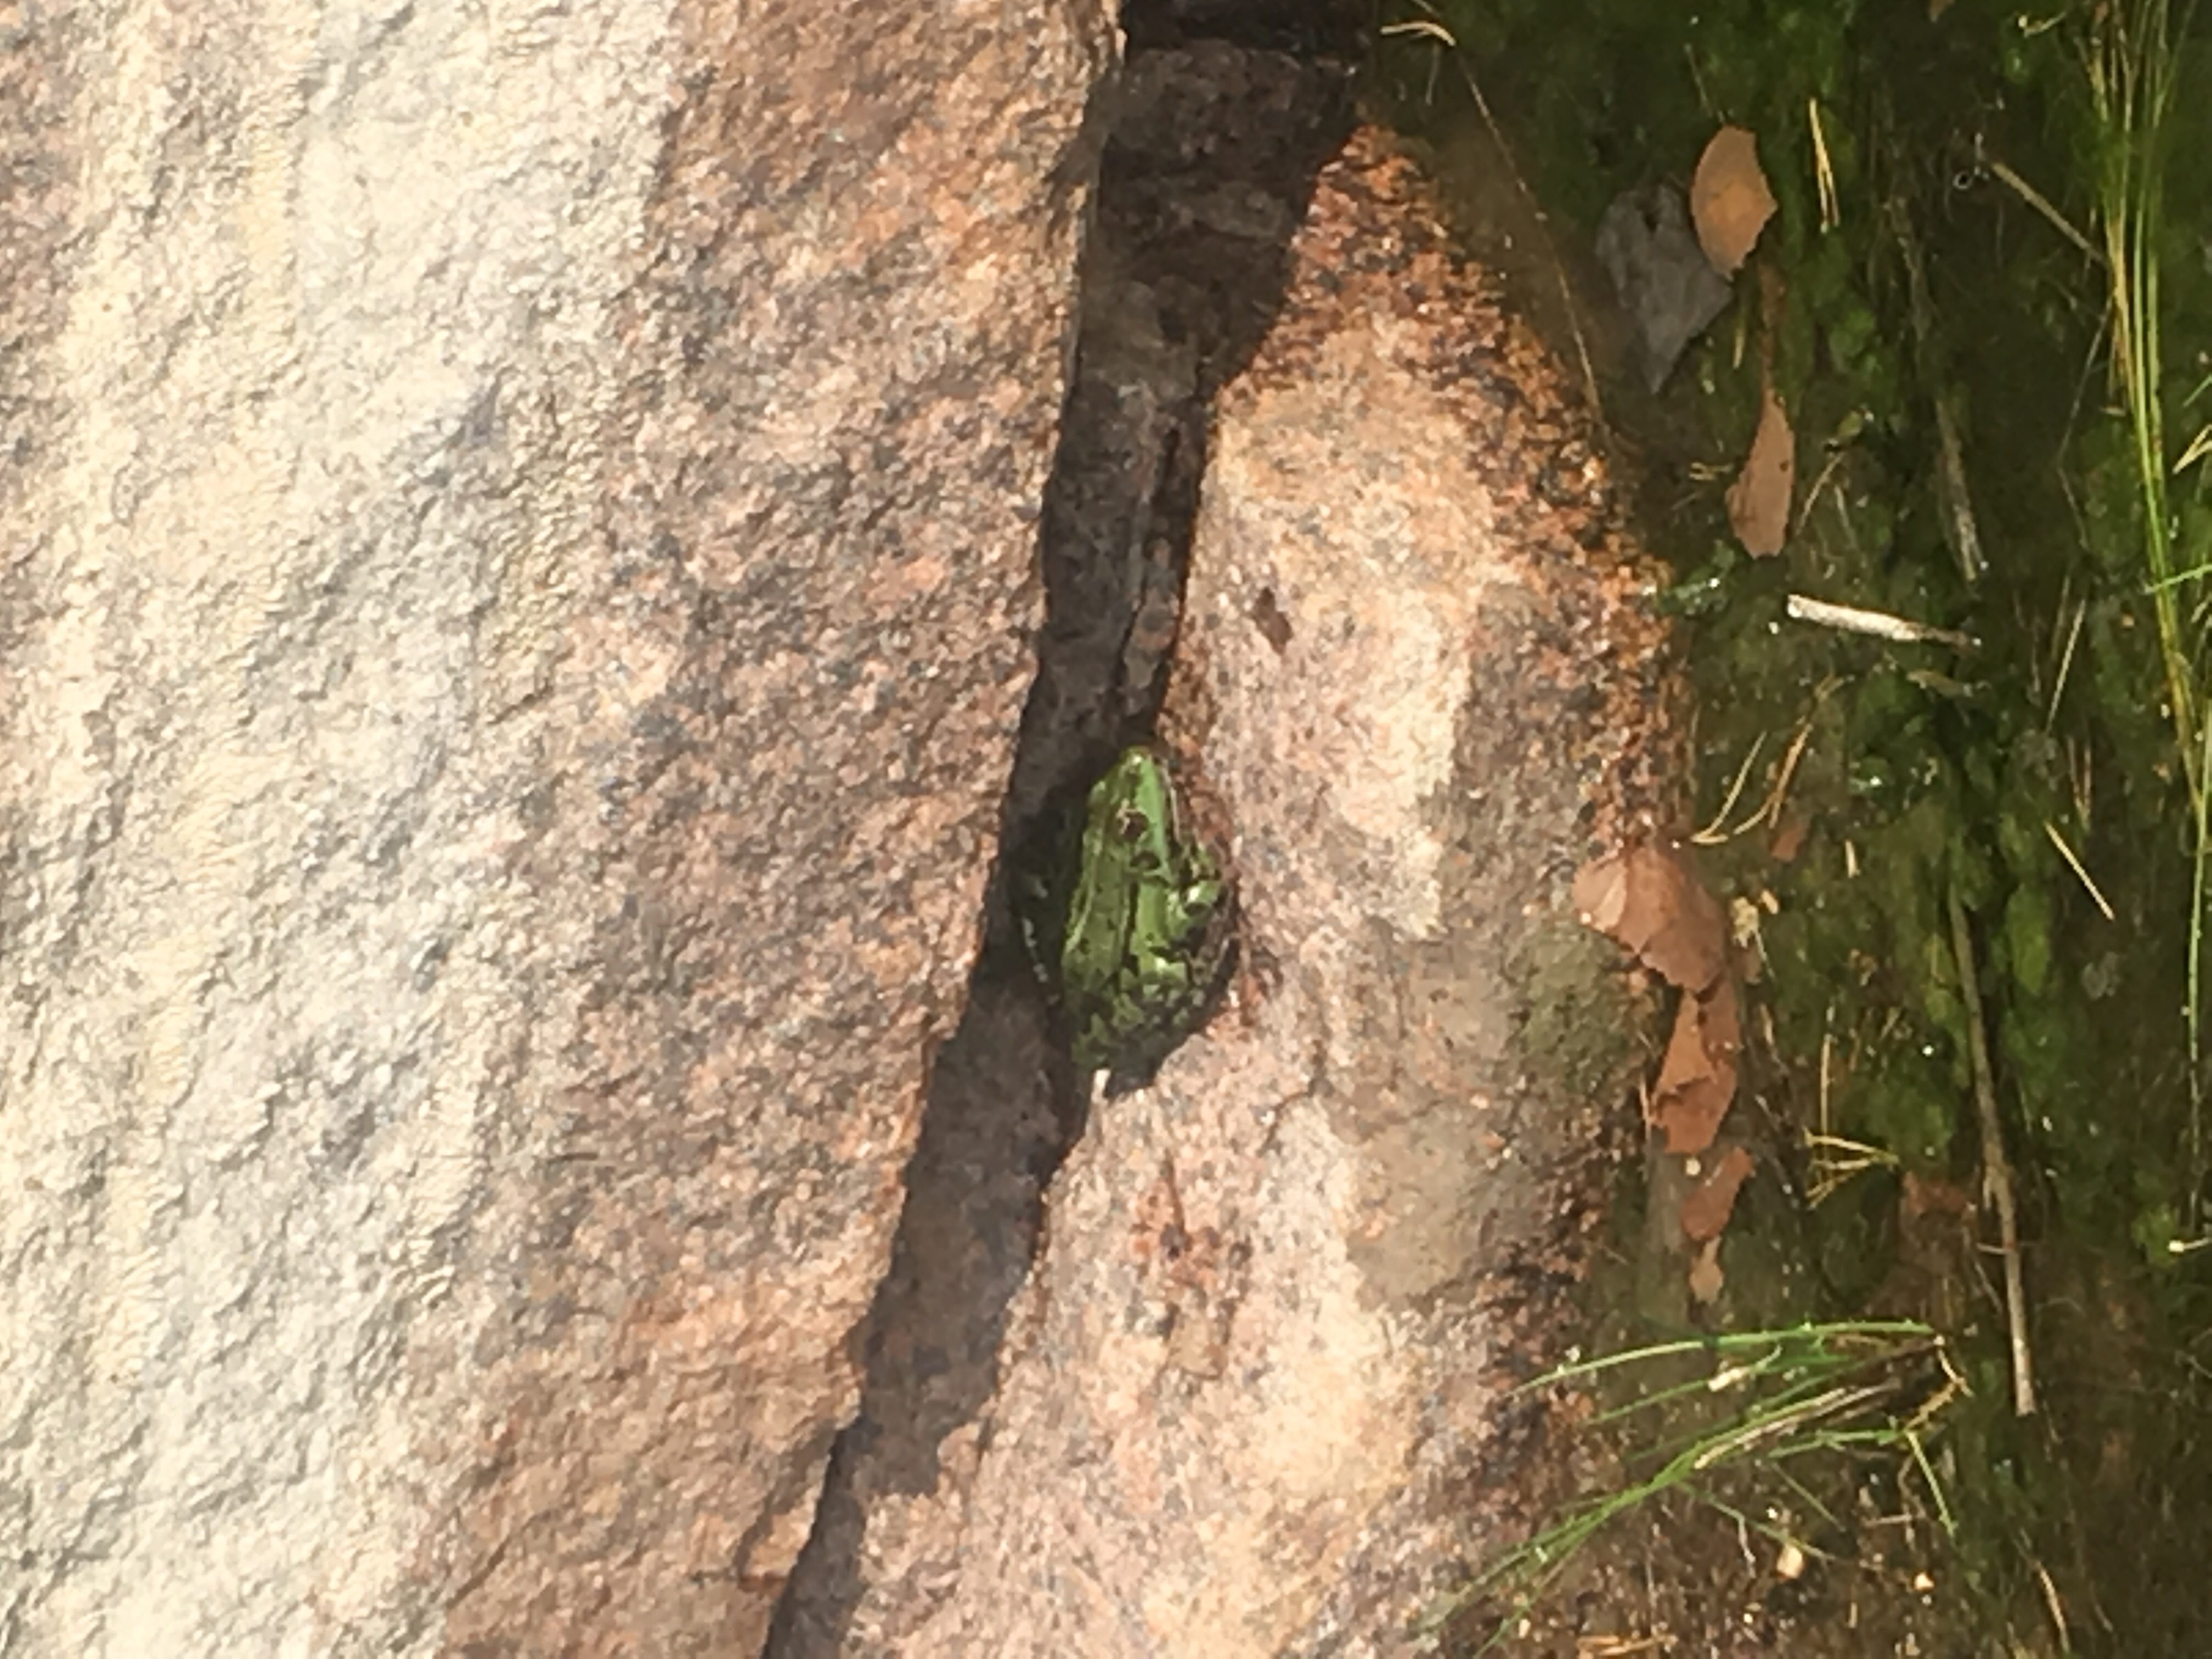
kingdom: Animalia
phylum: Chordata
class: Amphibia
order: Anura
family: Ranidae
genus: Pelophylax
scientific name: Pelophylax lessonae
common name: Pool frog
